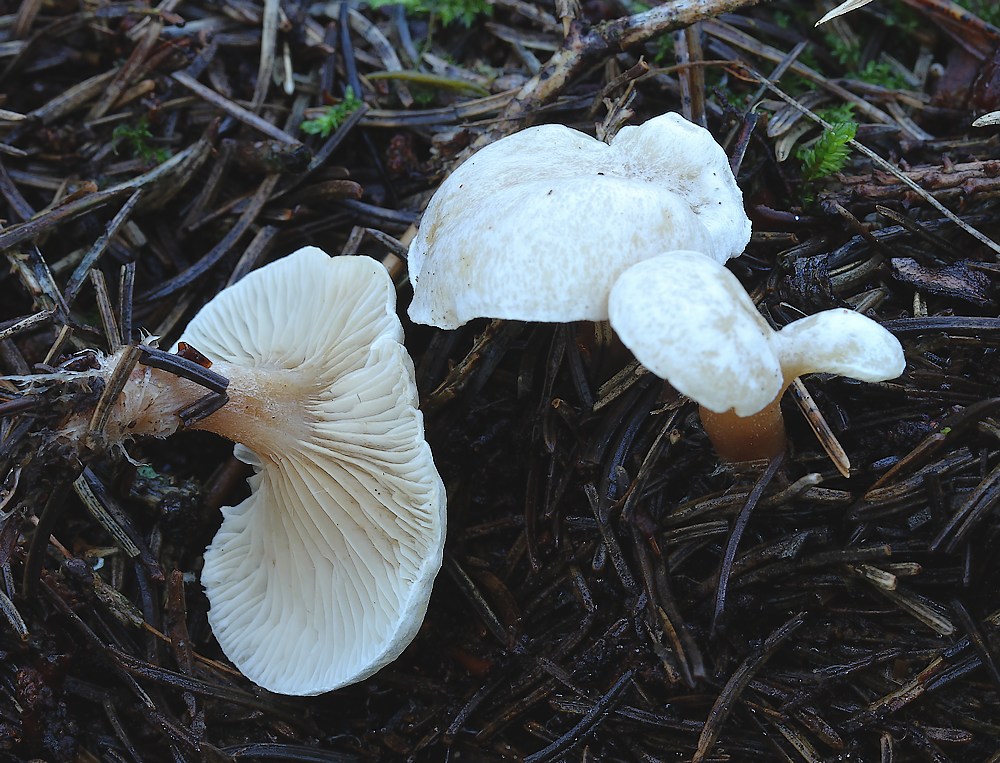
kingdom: Fungi
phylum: Basidiomycota
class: Agaricomycetes
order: Agaricales
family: Tricholomataceae
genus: Ripartites
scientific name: Ripartites tricholoma
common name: almindelig skæghat
